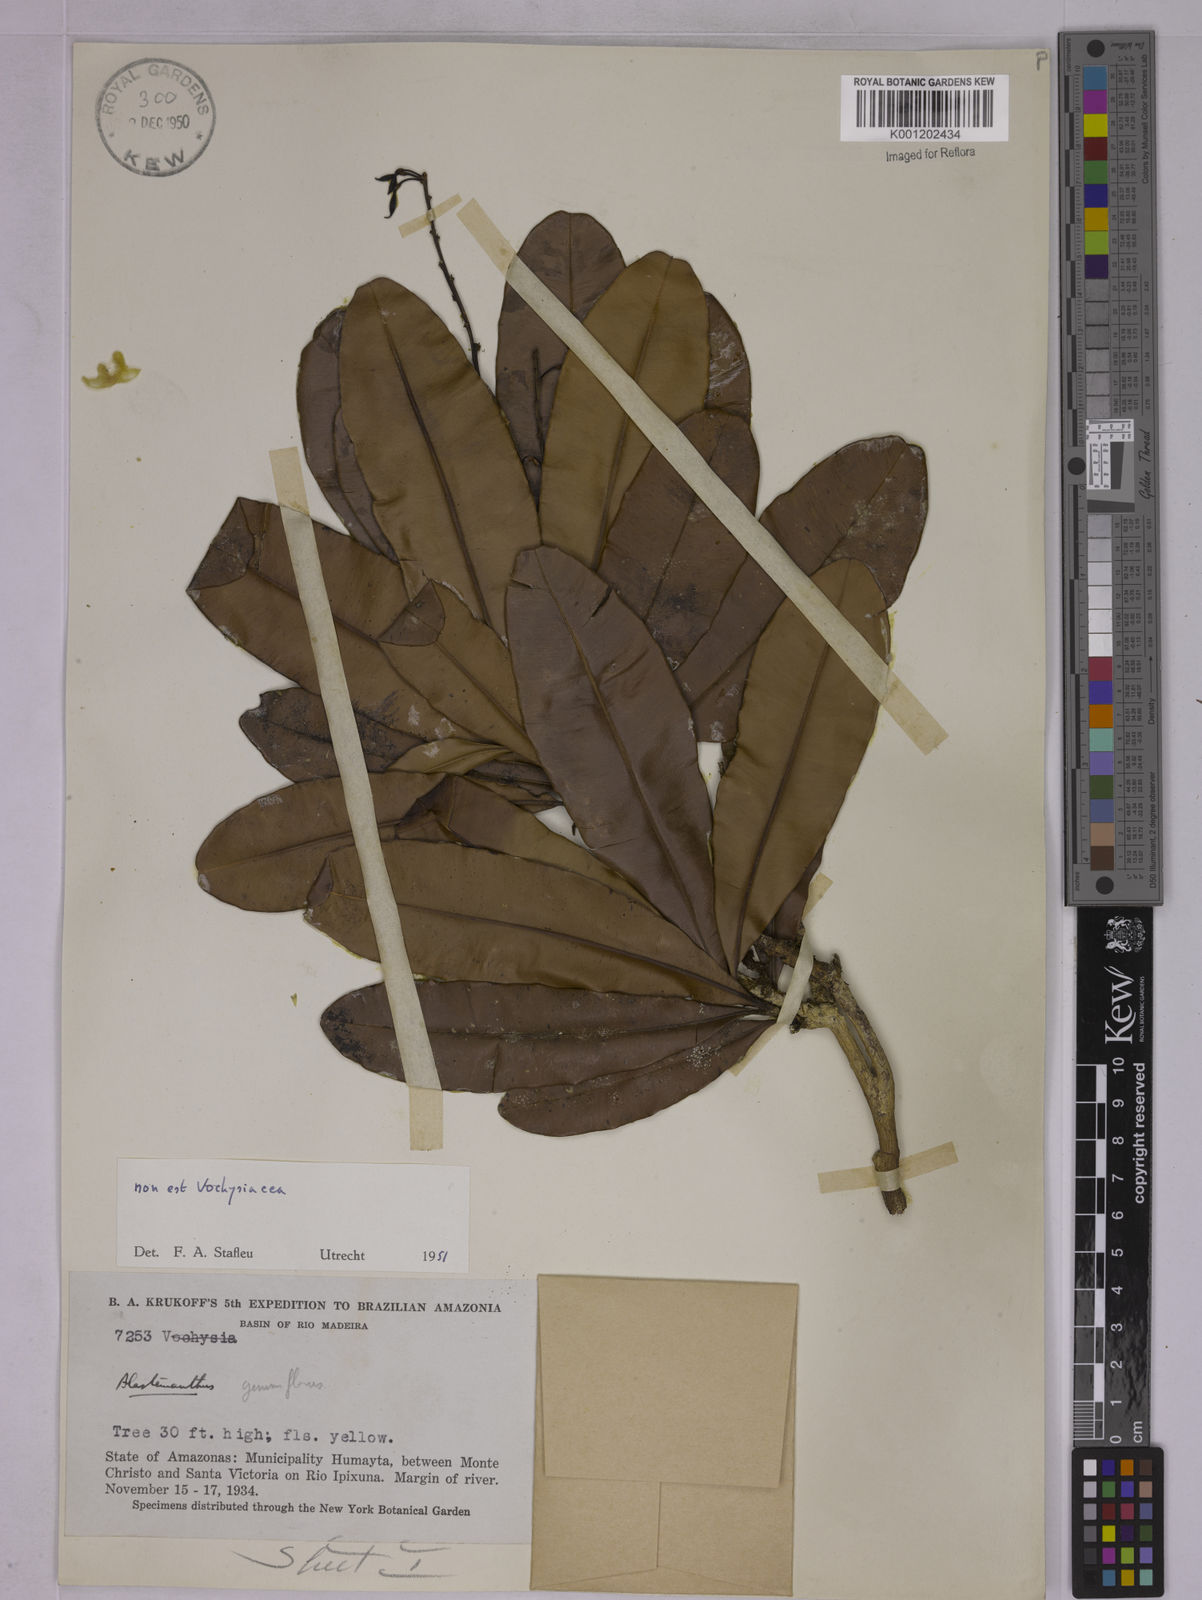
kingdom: Plantae
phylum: Tracheophyta
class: Magnoliopsida
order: Malpighiales
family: Ochnaceae
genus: Blastemanthus
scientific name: Blastemanthus gemmiflorus
